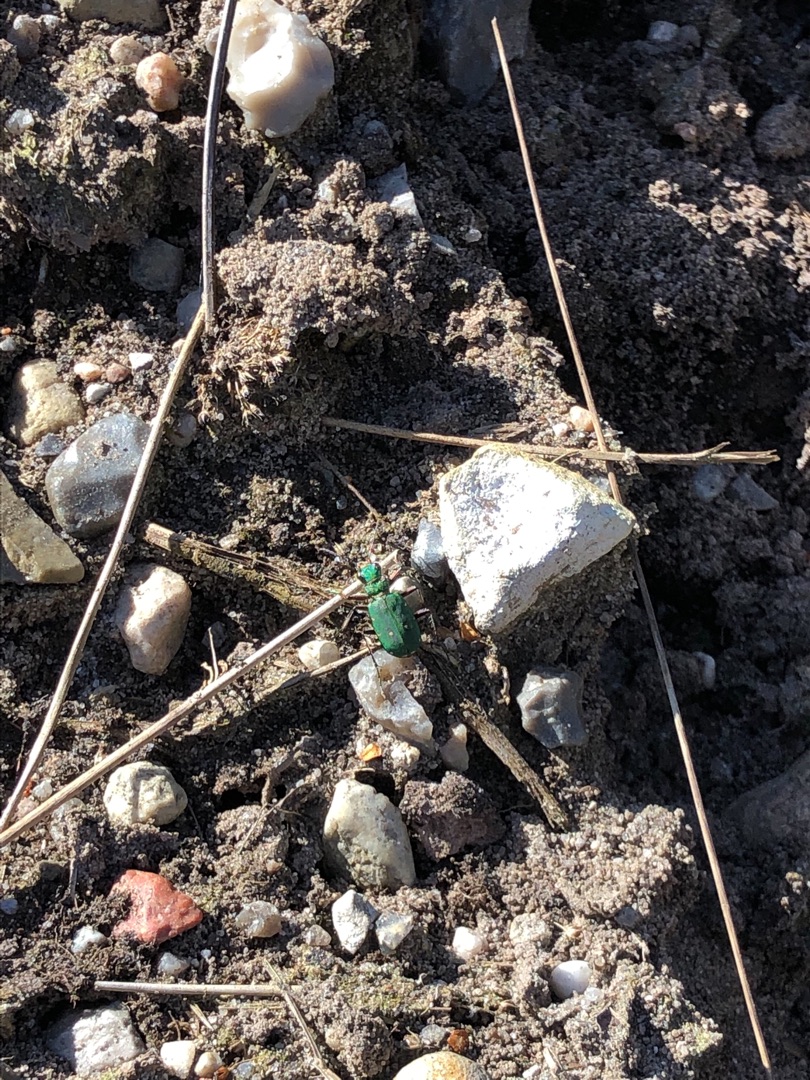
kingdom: Animalia
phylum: Arthropoda
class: Insecta
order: Coleoptera
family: Carabidae
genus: Cicindela
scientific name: Cicindela campestris
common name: Grøn sandspringer
